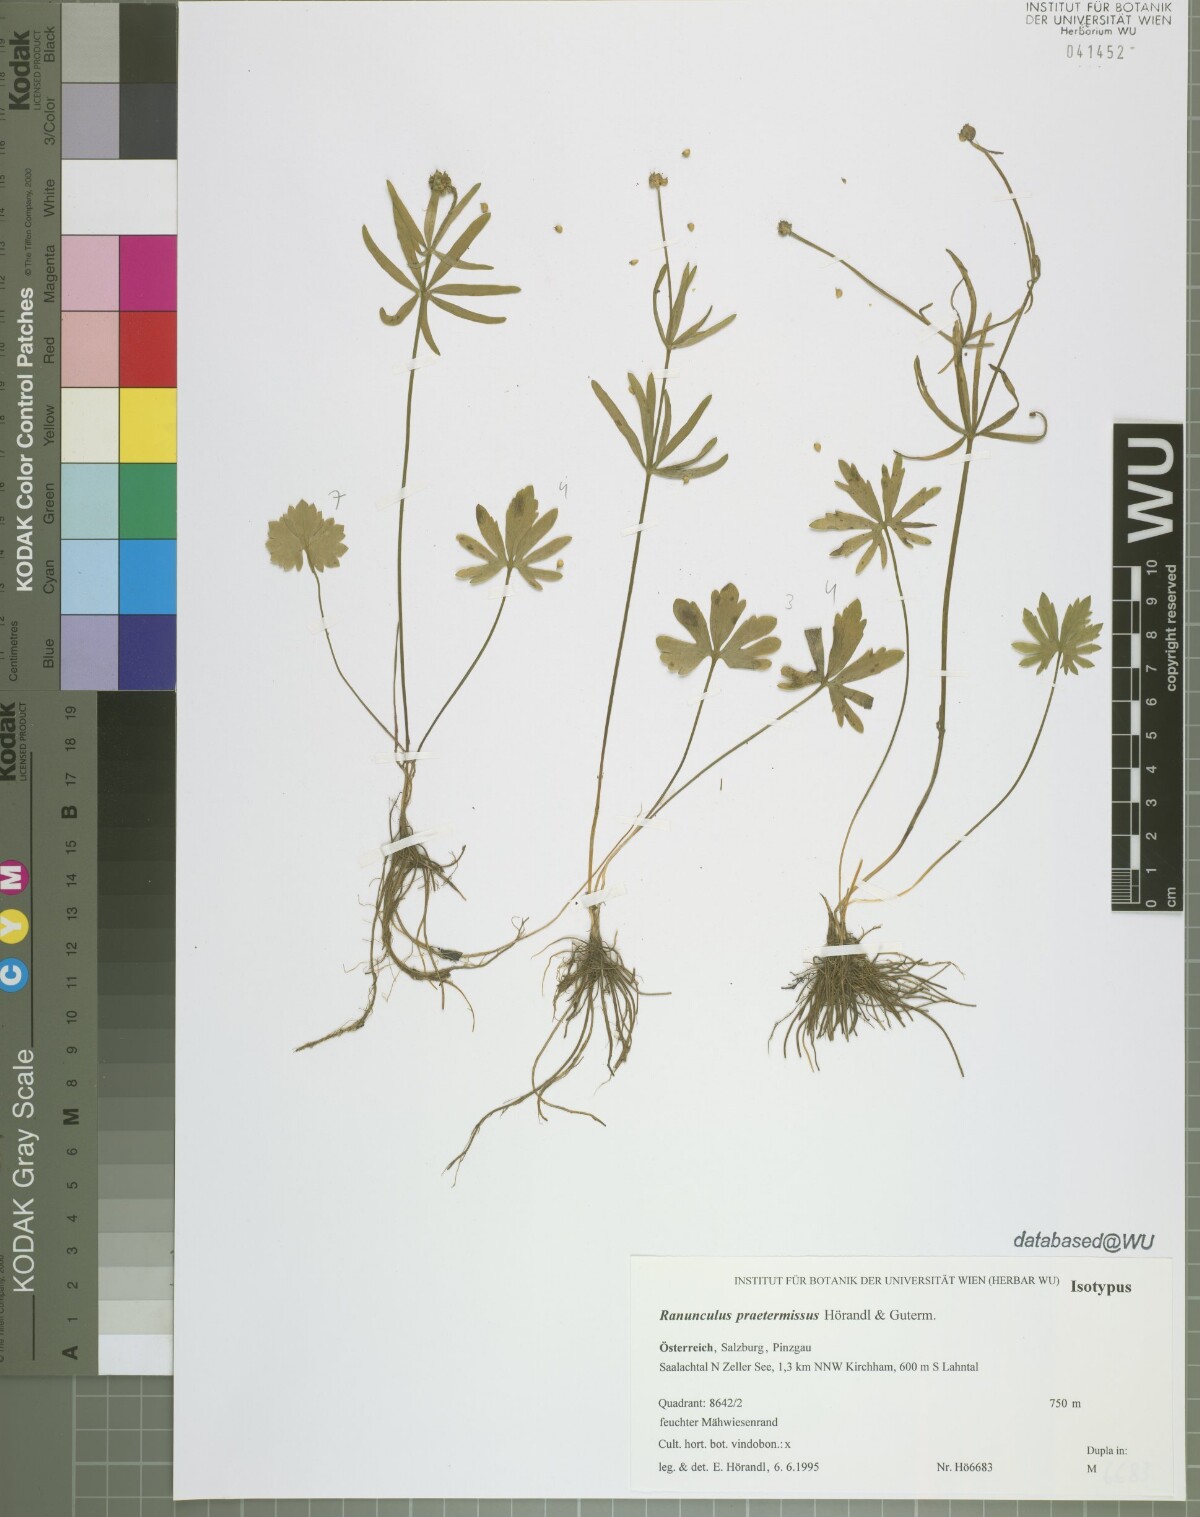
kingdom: Plantae
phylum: Tracheophyta
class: Magnoliopsida
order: Ranunculales
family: Ranunculaceae
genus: Ranunculus
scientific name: Ranunculus praetermissus
